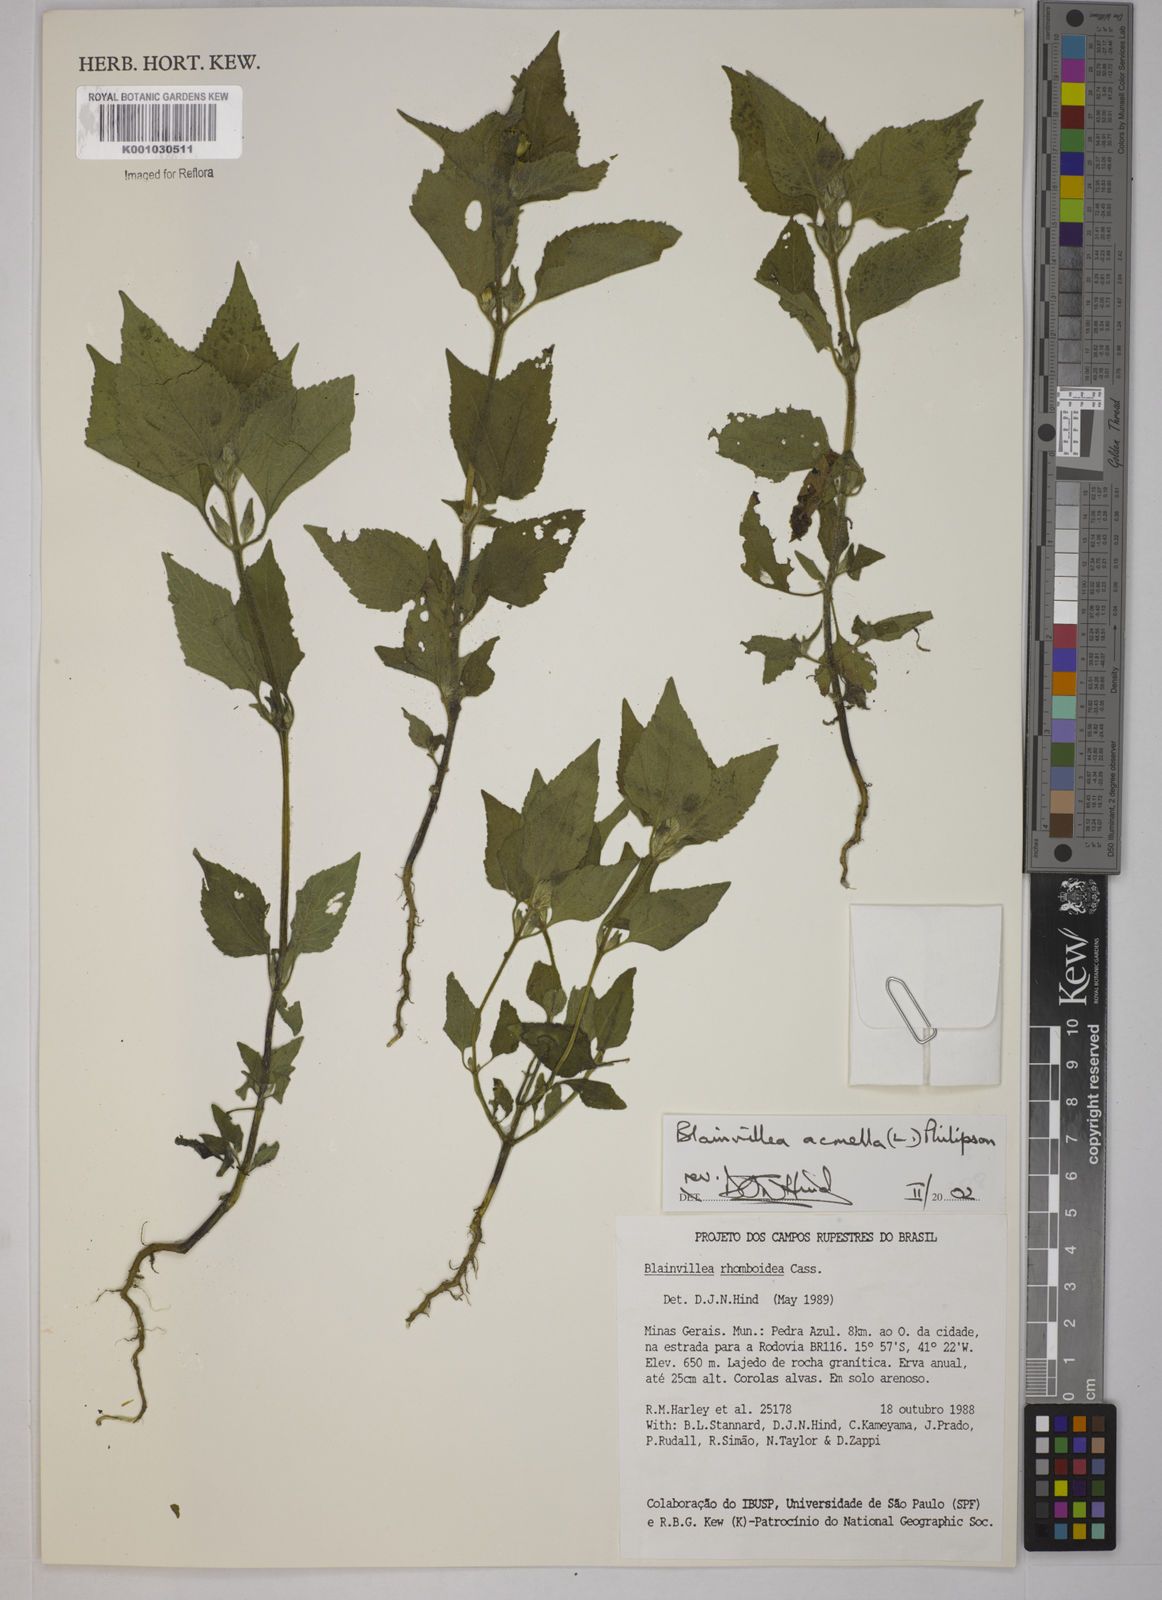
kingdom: Plantae
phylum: Tracheophyta
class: Magnoliopsida
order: Asterales
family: Asteraceae
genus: Blainvillea
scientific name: Blainvillea acmella
